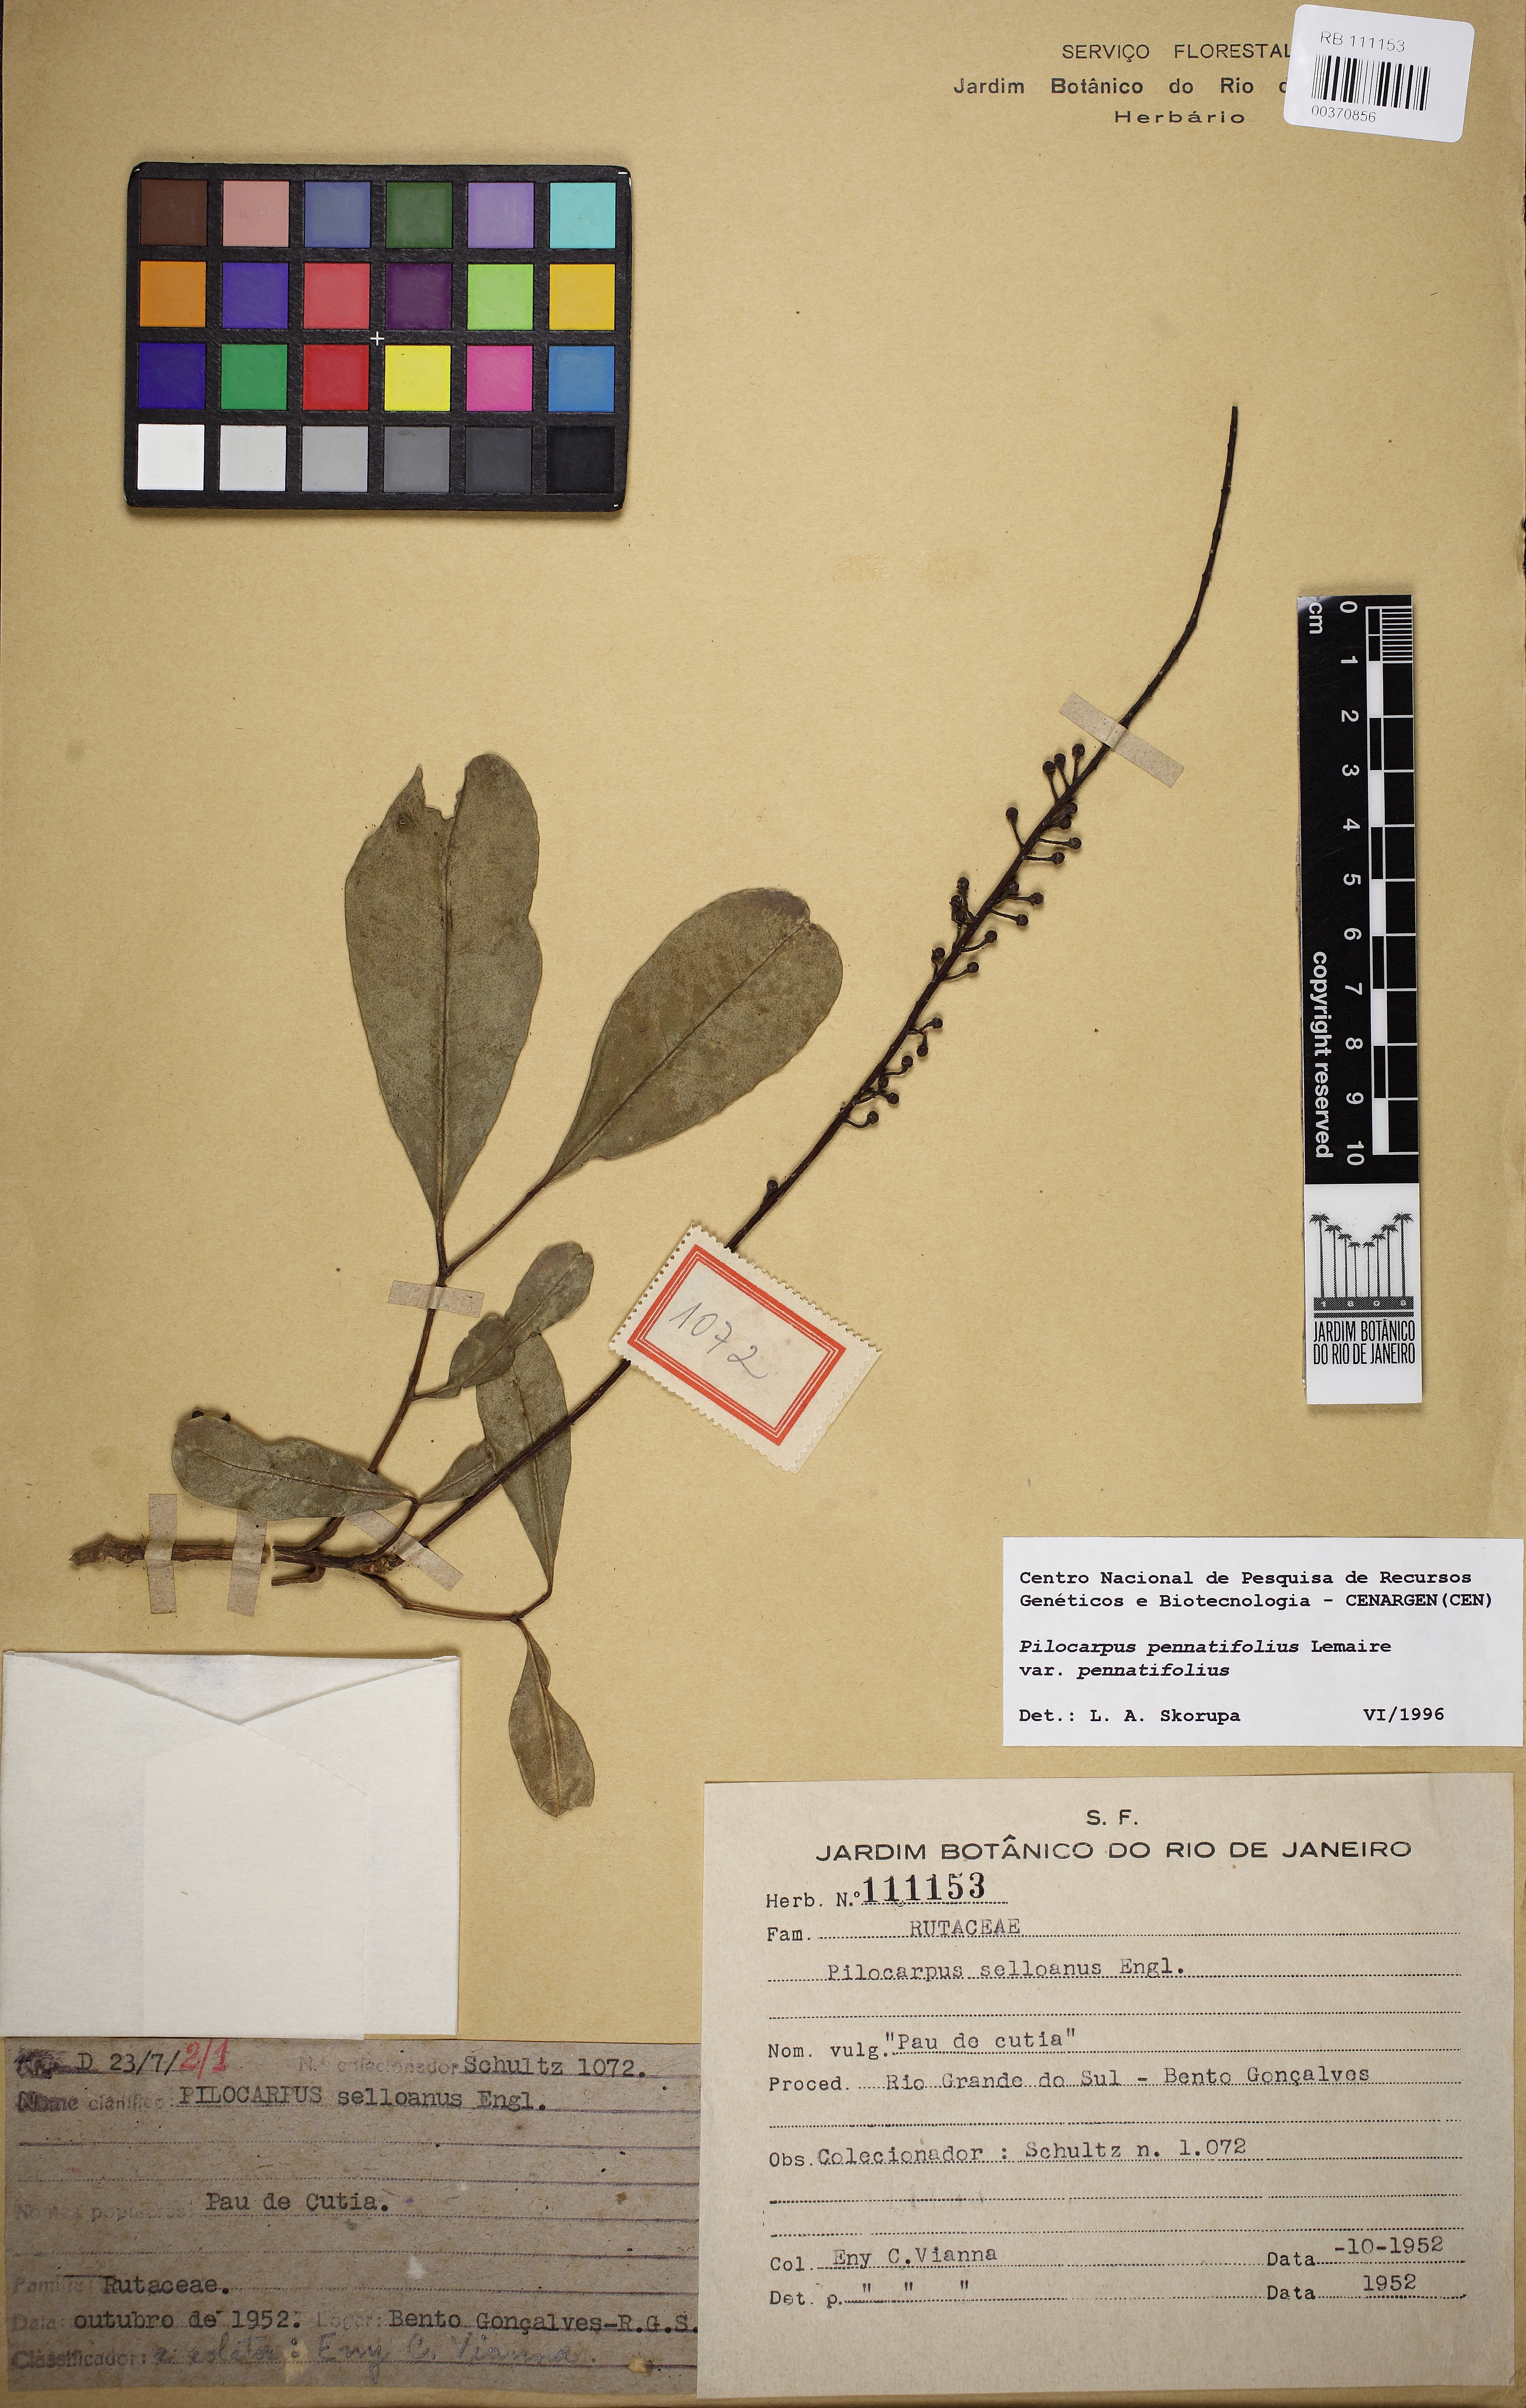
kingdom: Plantae
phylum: Tracheophyta
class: Magnoliopsida
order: Sapindales
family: Rutaceae
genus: Pilocarpus
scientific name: Pilocarpus pennatifolius
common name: Paraguay jaborandi
